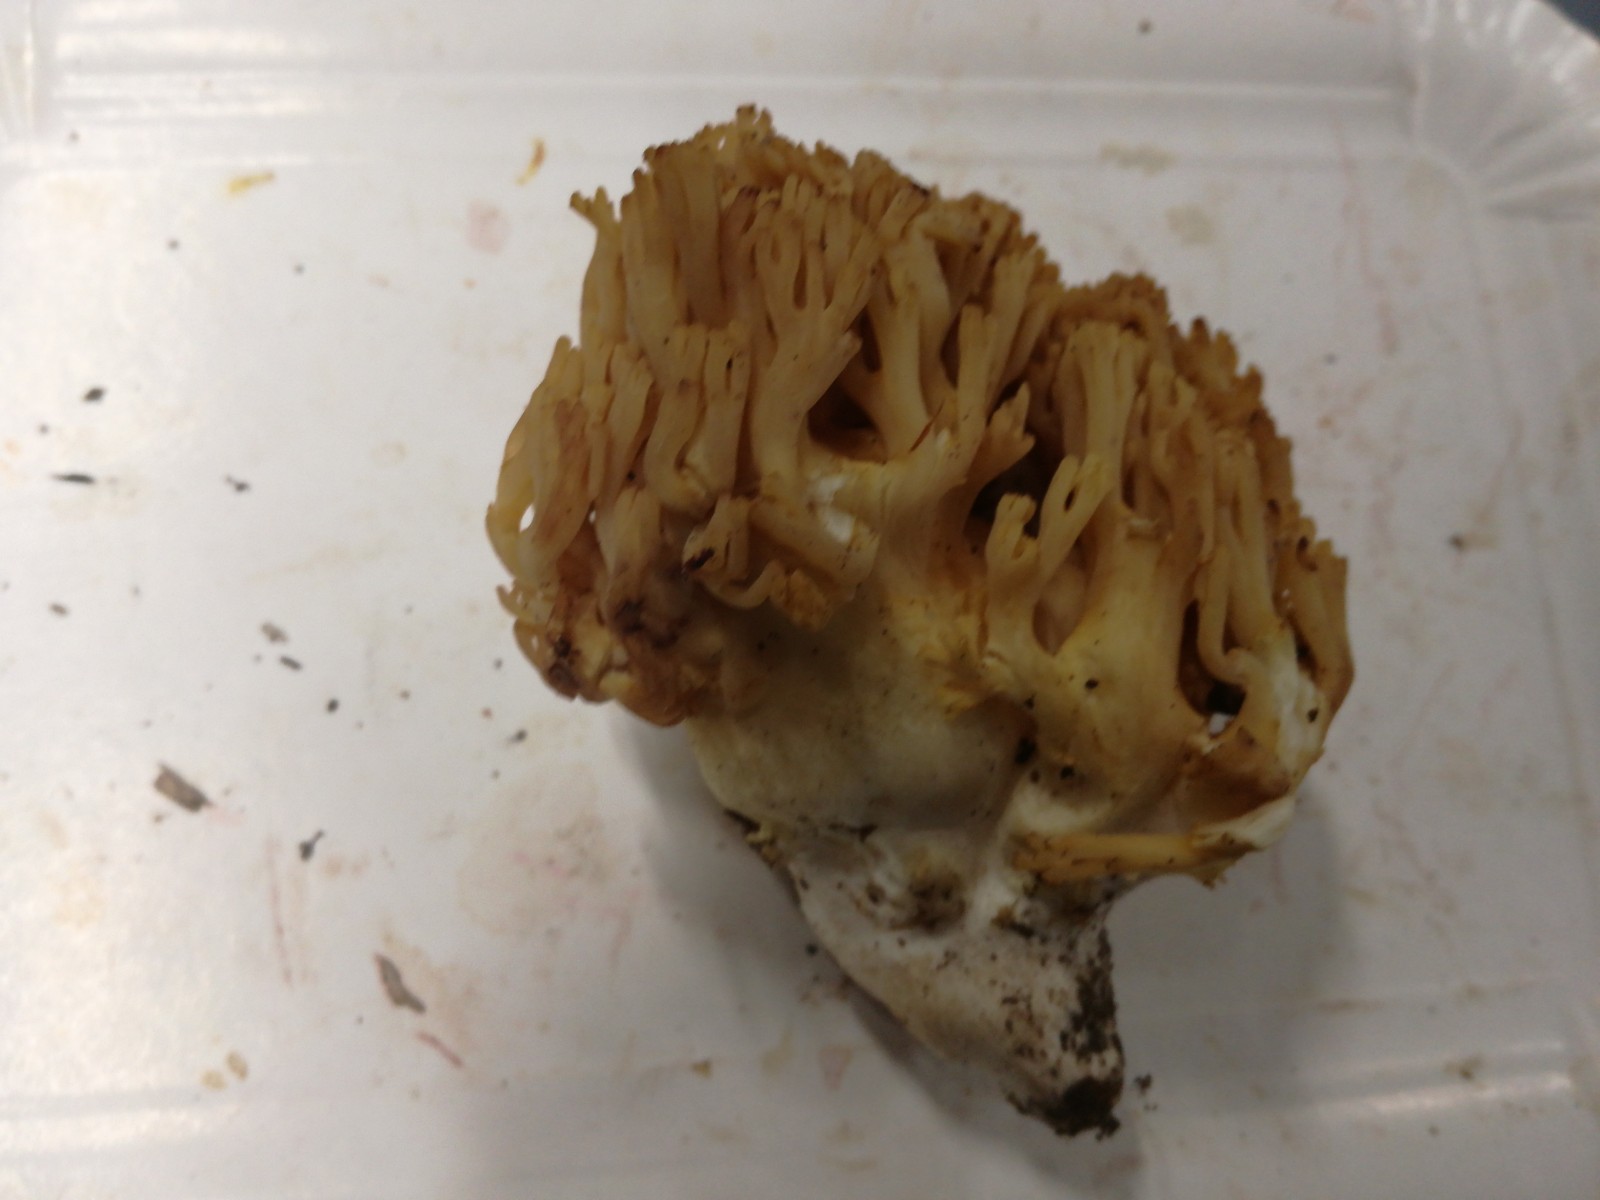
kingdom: Fungi
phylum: Basidiomycota
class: Agaricomycetes
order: Gomphales
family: Gomphaceae
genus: Ramaria
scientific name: Ramaria krieglsteineri
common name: smalsporet koralsvamp
